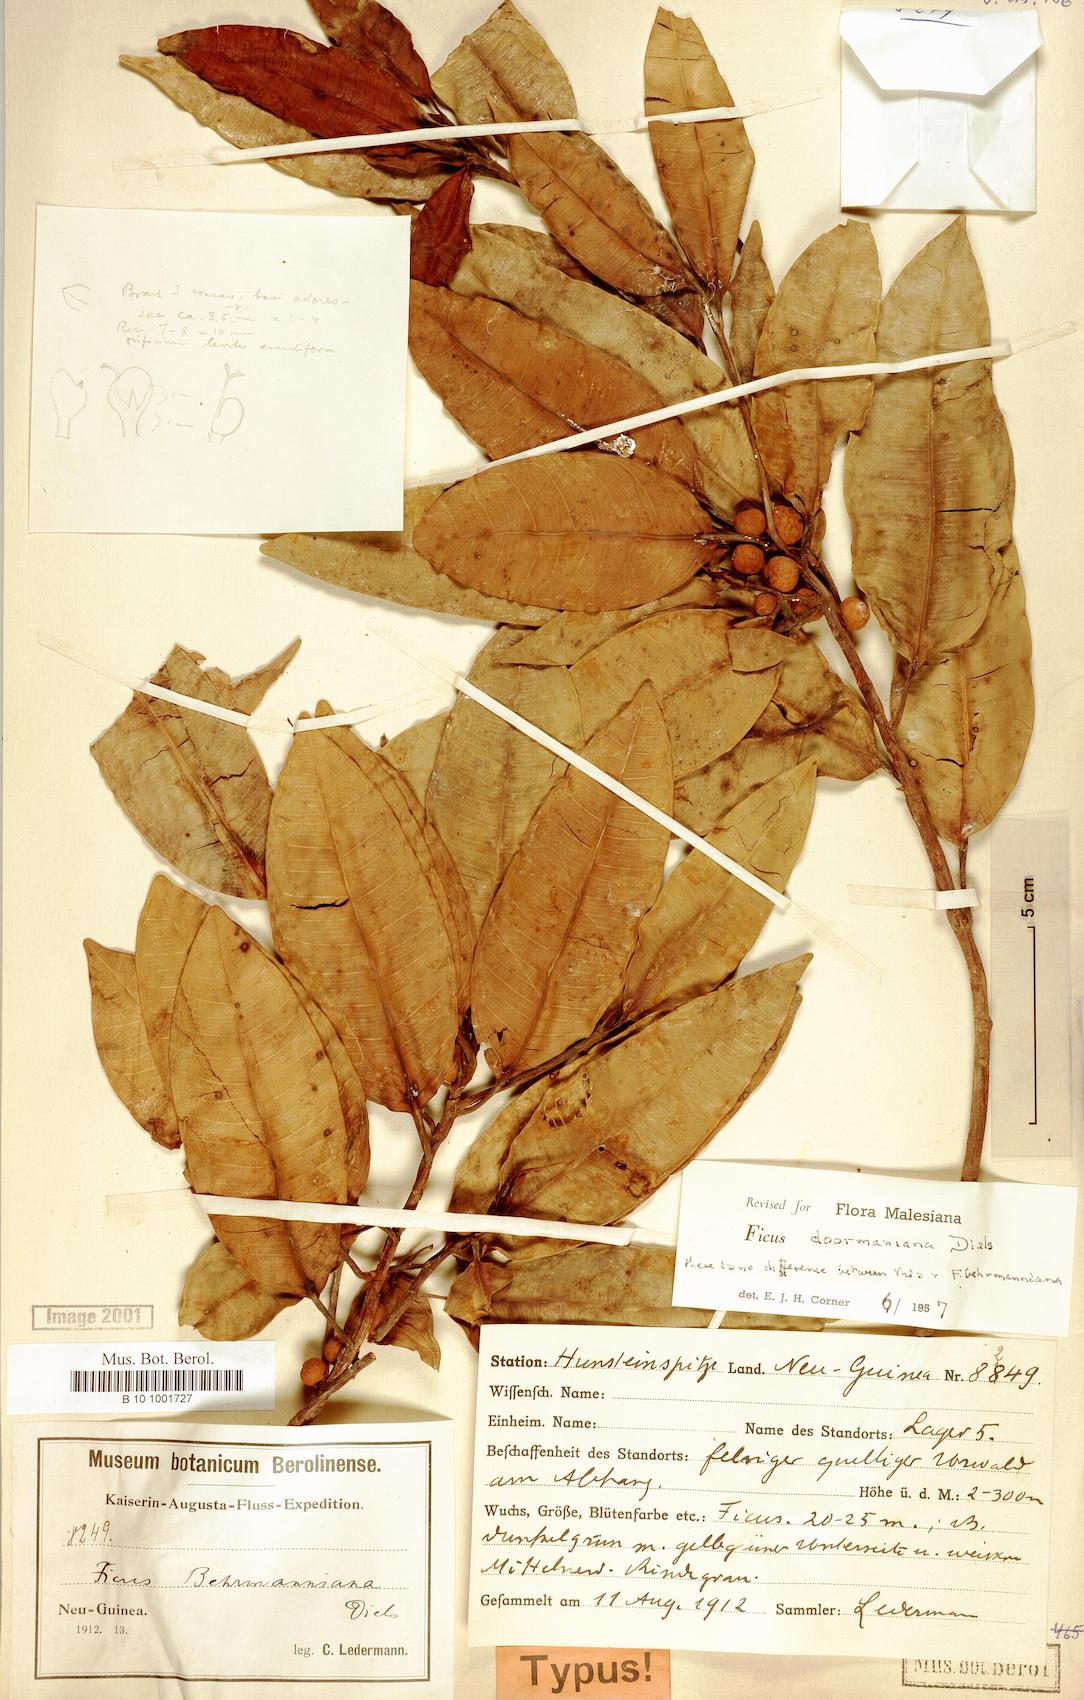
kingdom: Plantae
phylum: Tracheophyta
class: Magnoliopsida
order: Rosales
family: Moraceae
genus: Ficus
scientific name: Ficus subtrinervia
